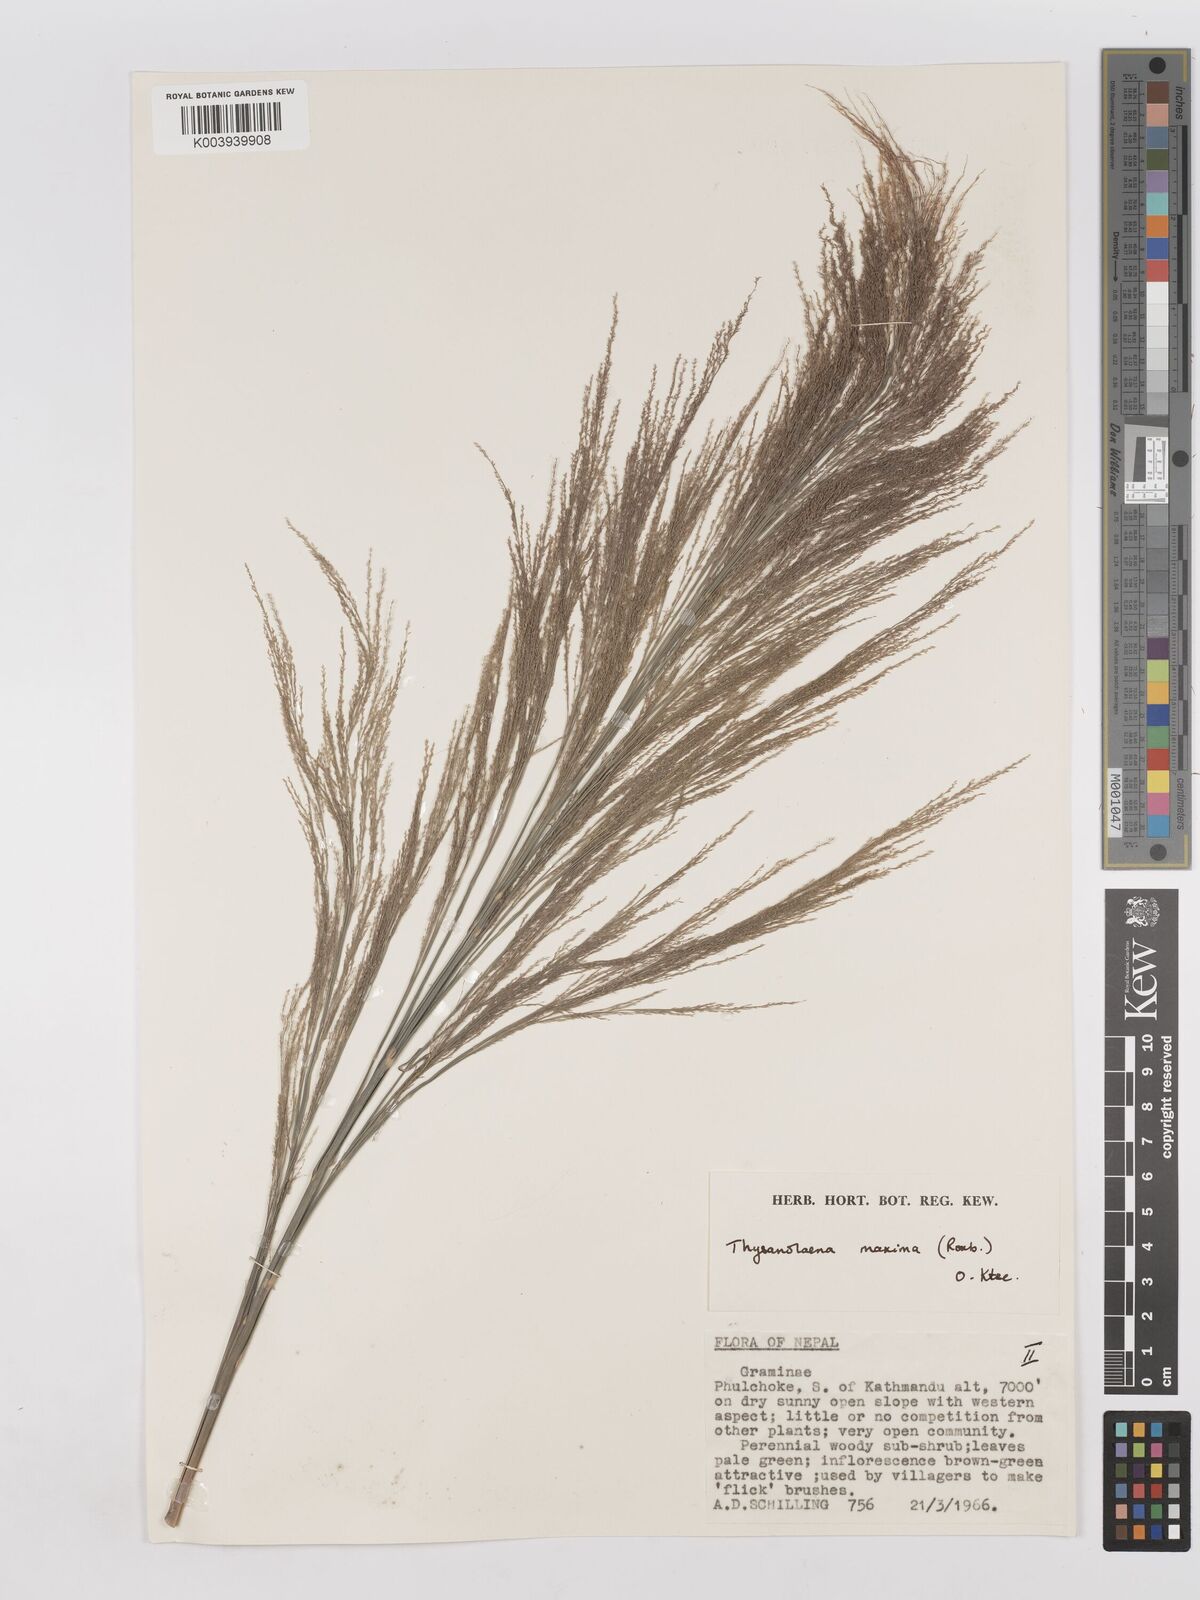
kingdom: Plantae
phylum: Tracheophyta
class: Liliopsida
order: Poales
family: Poaceae
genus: Thysanolaena
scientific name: Thysanolaena latifolia
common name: Tiger grass
